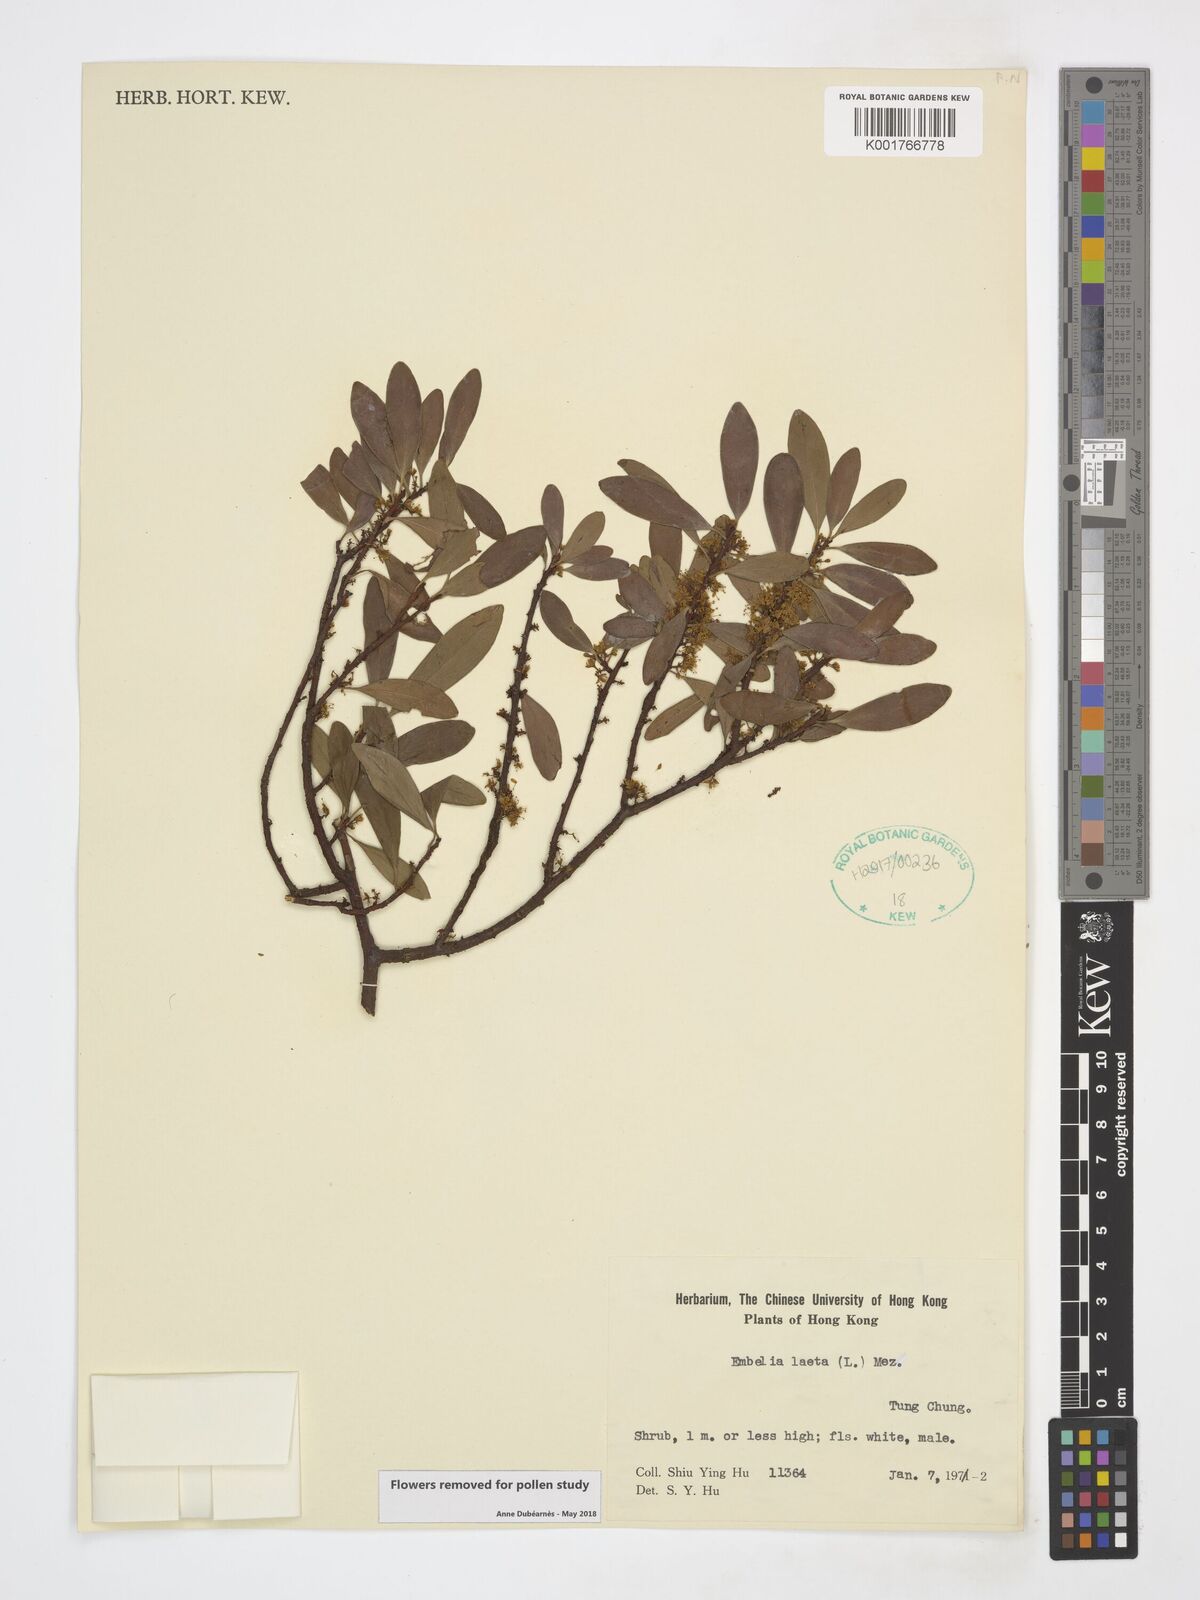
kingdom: Plantae
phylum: Tracheophyta
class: Magnoliopsida
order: Ericales
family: Primulaceae
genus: Embelia
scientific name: Embelia laeta
